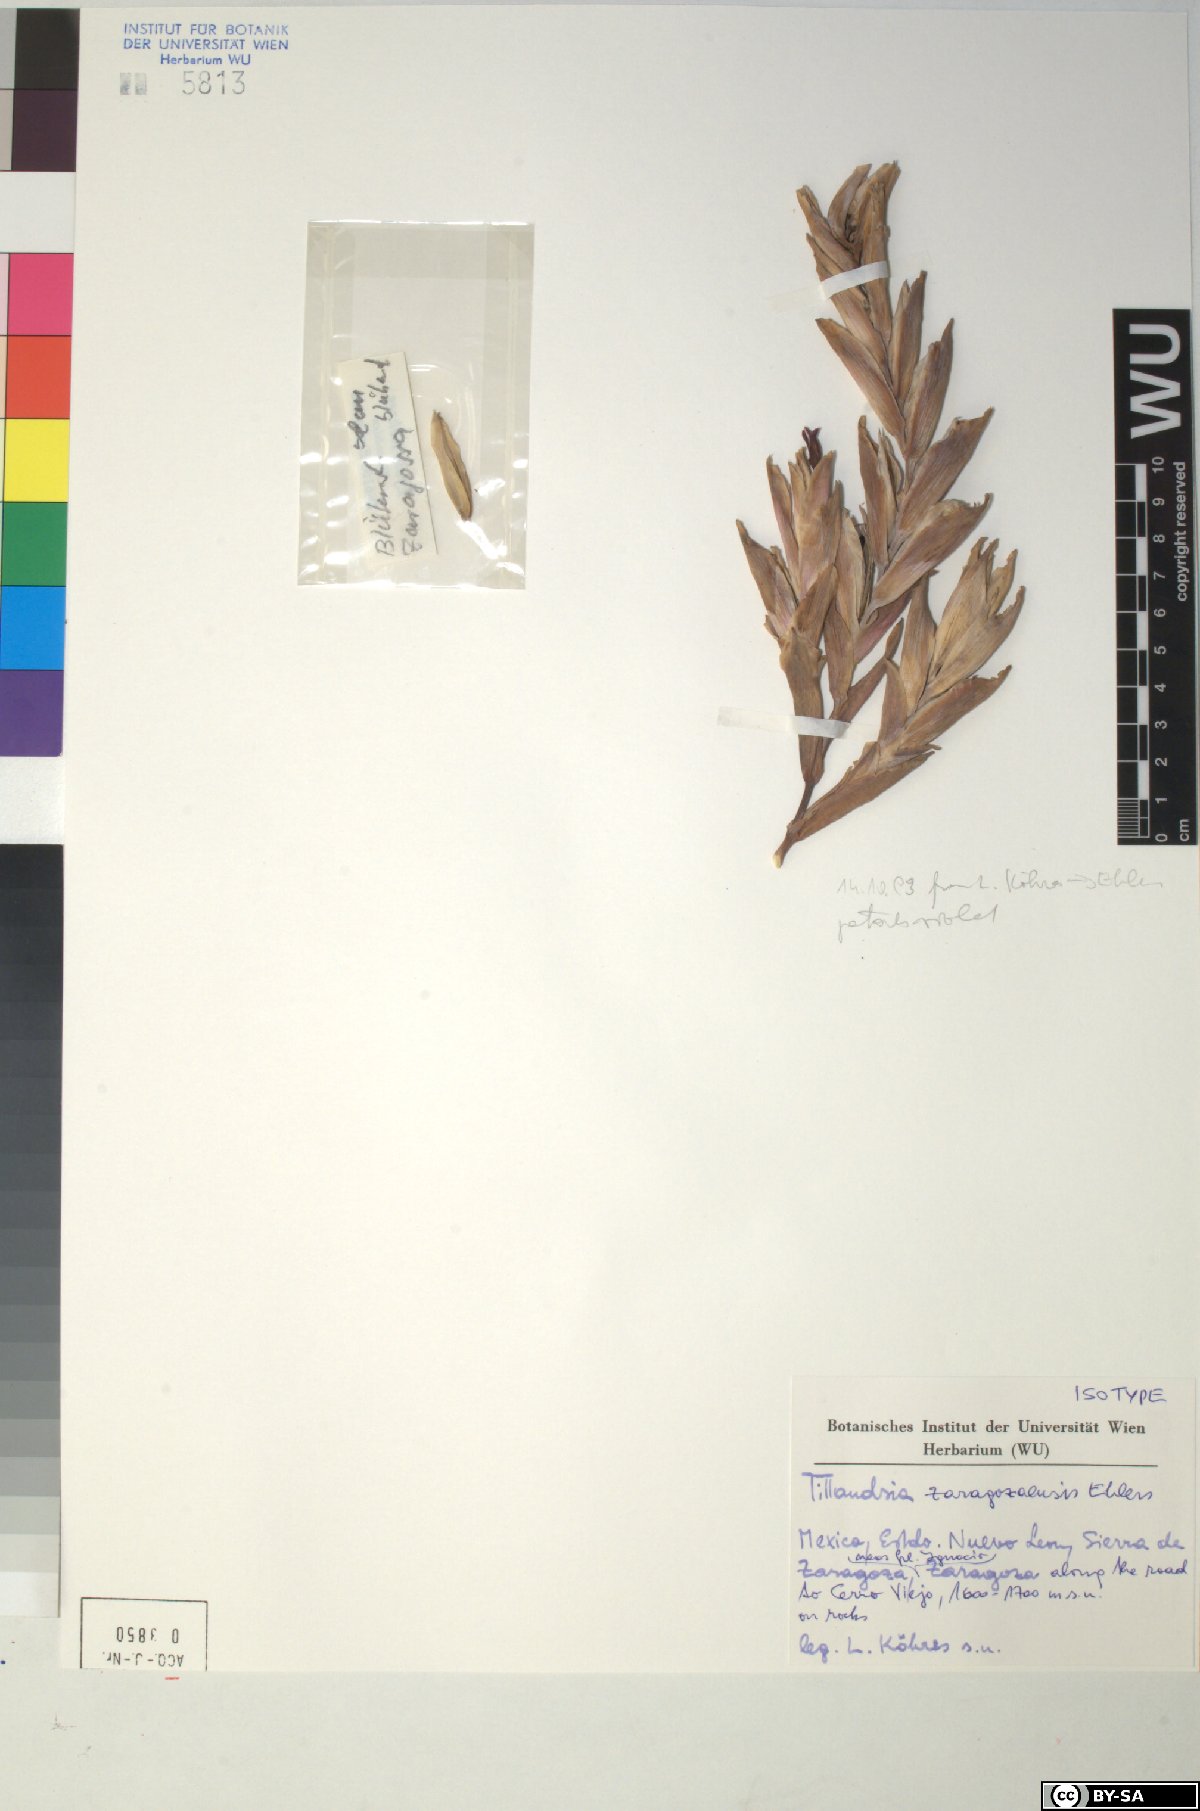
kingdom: Plantae
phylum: Tracheophyta
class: Liliopsida
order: Poales
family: Bromeliaceae
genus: Tillandsia
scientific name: Tillandsia zaragozaensis
